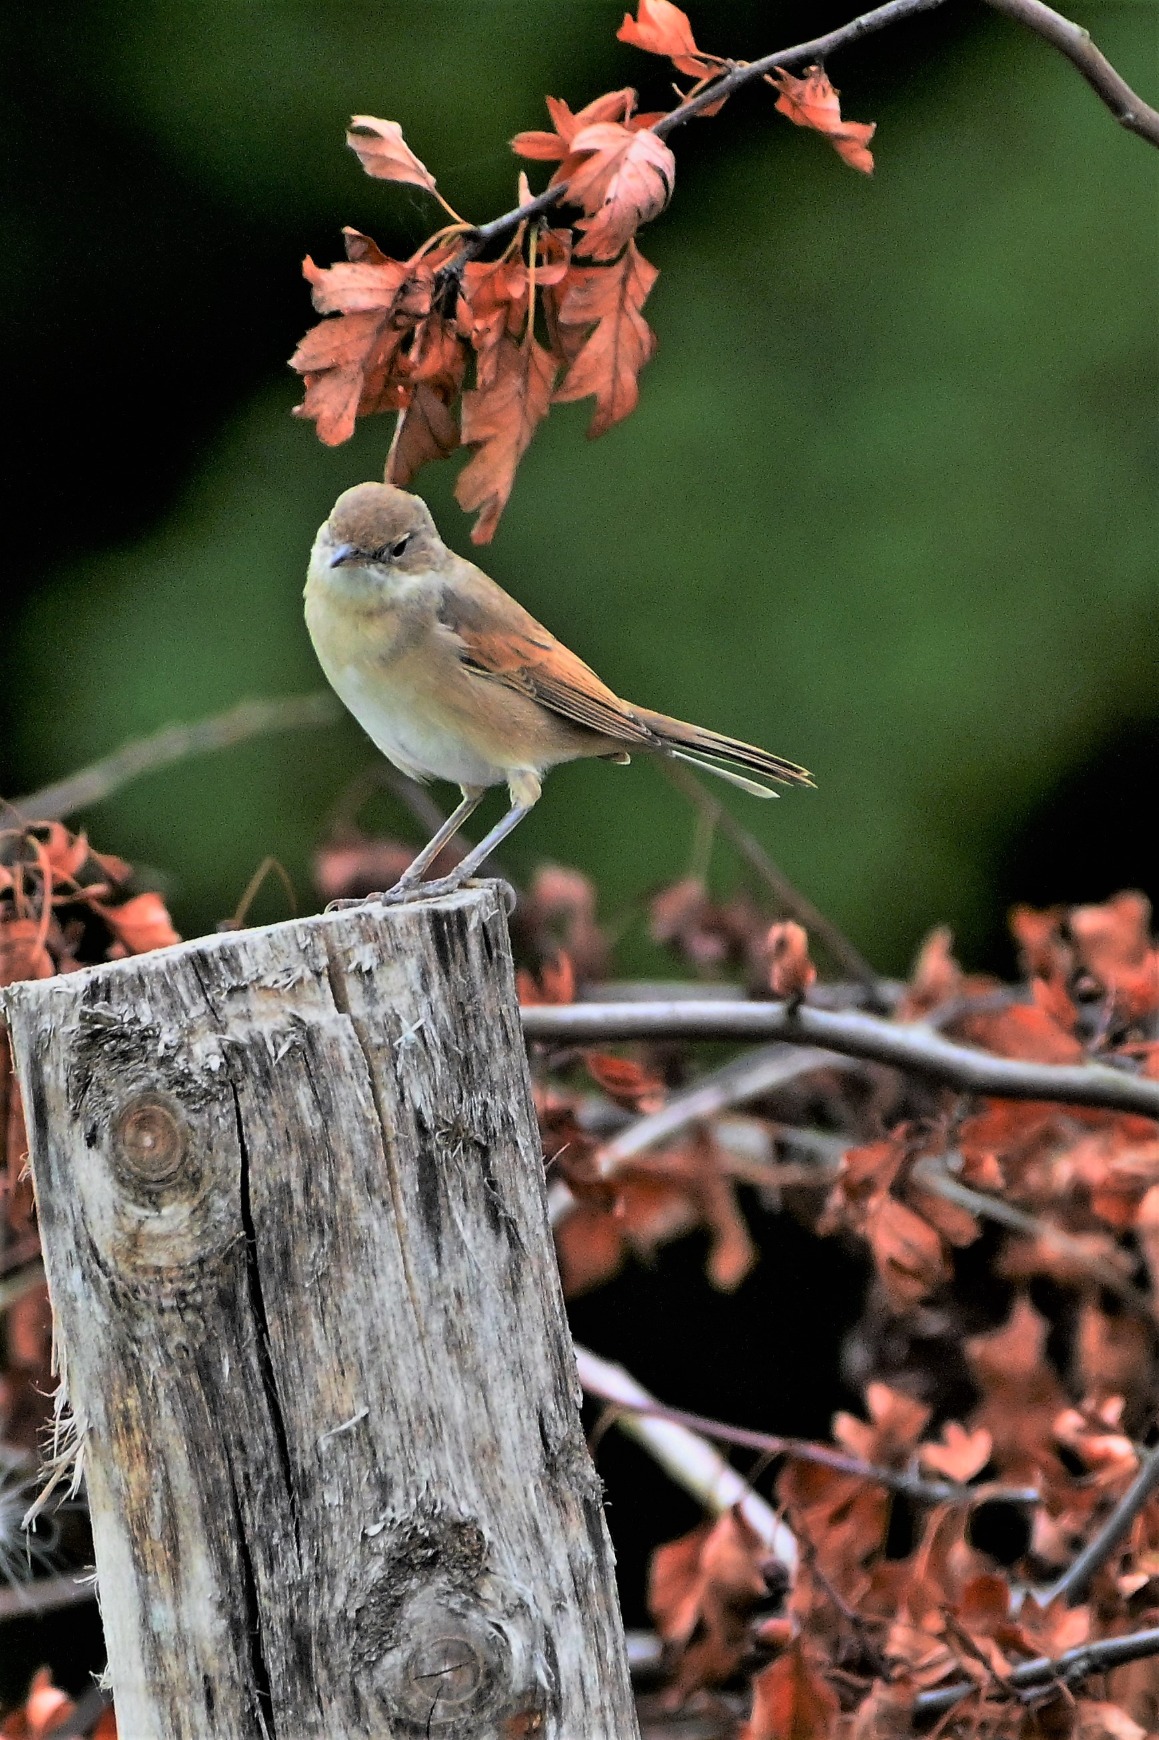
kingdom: Animalia
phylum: Chordata
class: Aves
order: Passeriformes
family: Sylviidae
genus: Sylvia
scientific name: Sylvia communis
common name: Tornsanger
